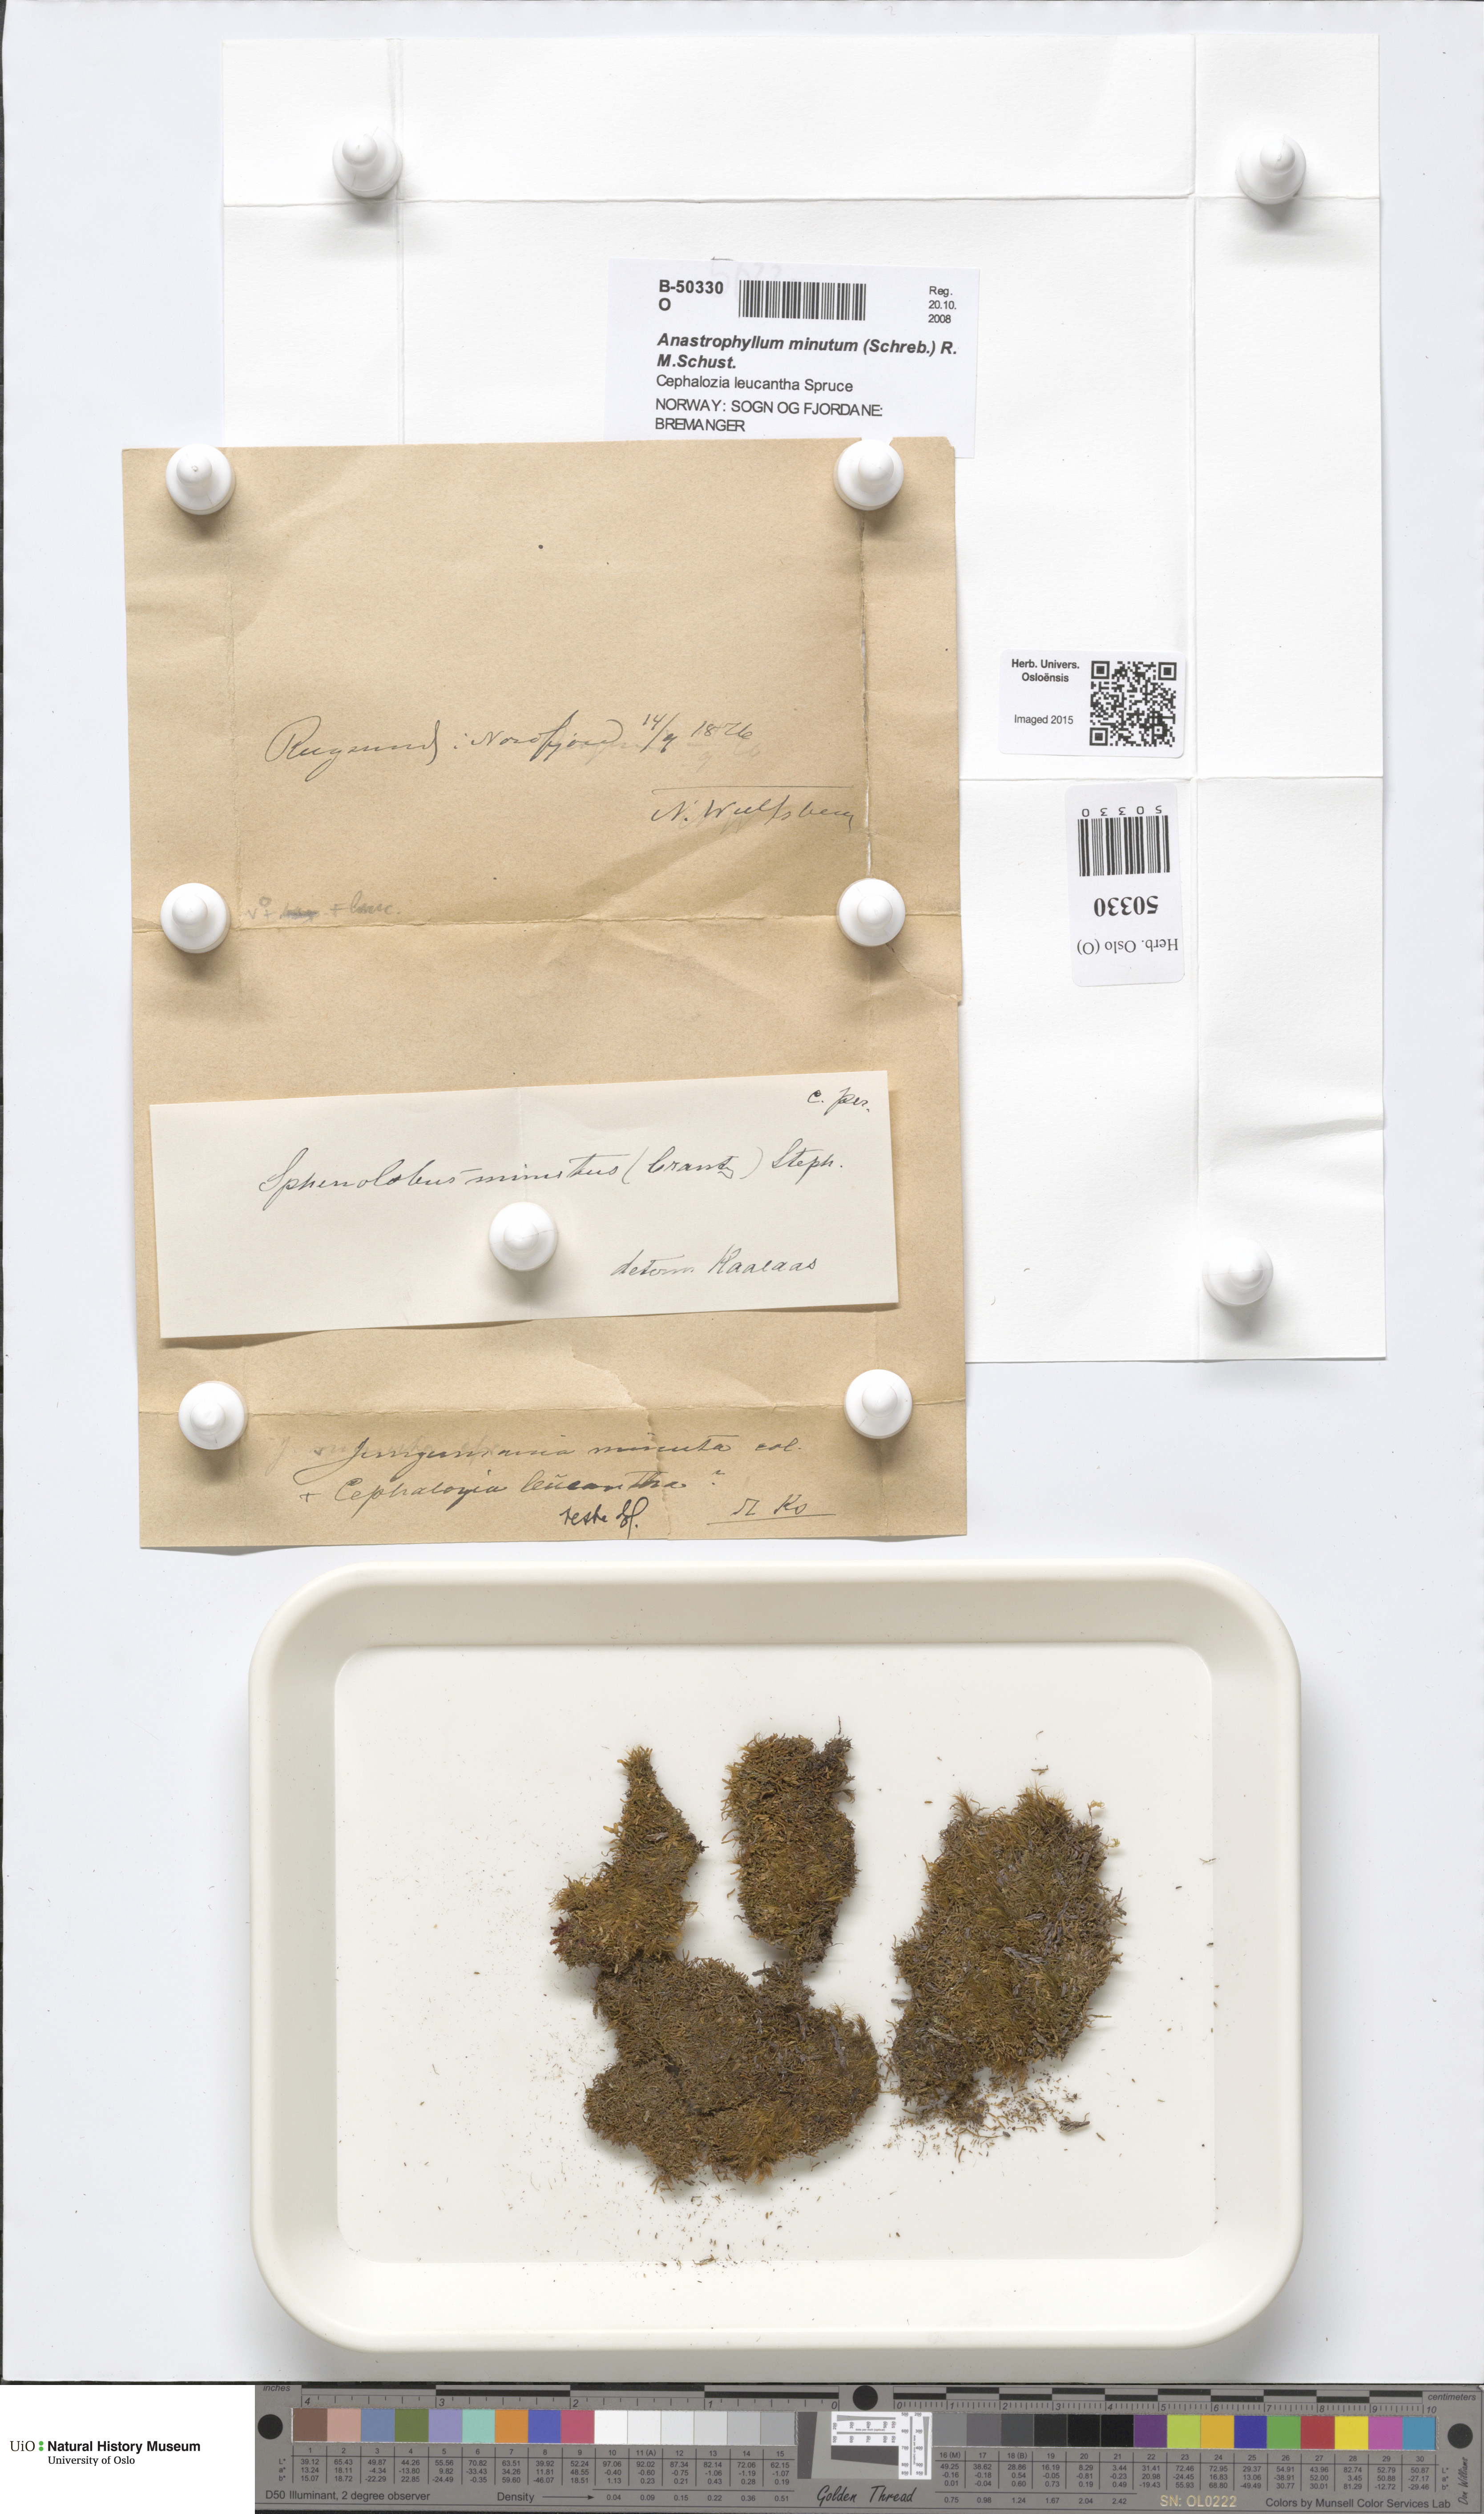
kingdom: Plantae
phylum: Marchantiophyta
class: Jungermanniopsida
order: Jungermanniales
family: Anastrophyllaceae
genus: Sphenolobus
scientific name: Sphenolobus minutus
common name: Comb notchwort
